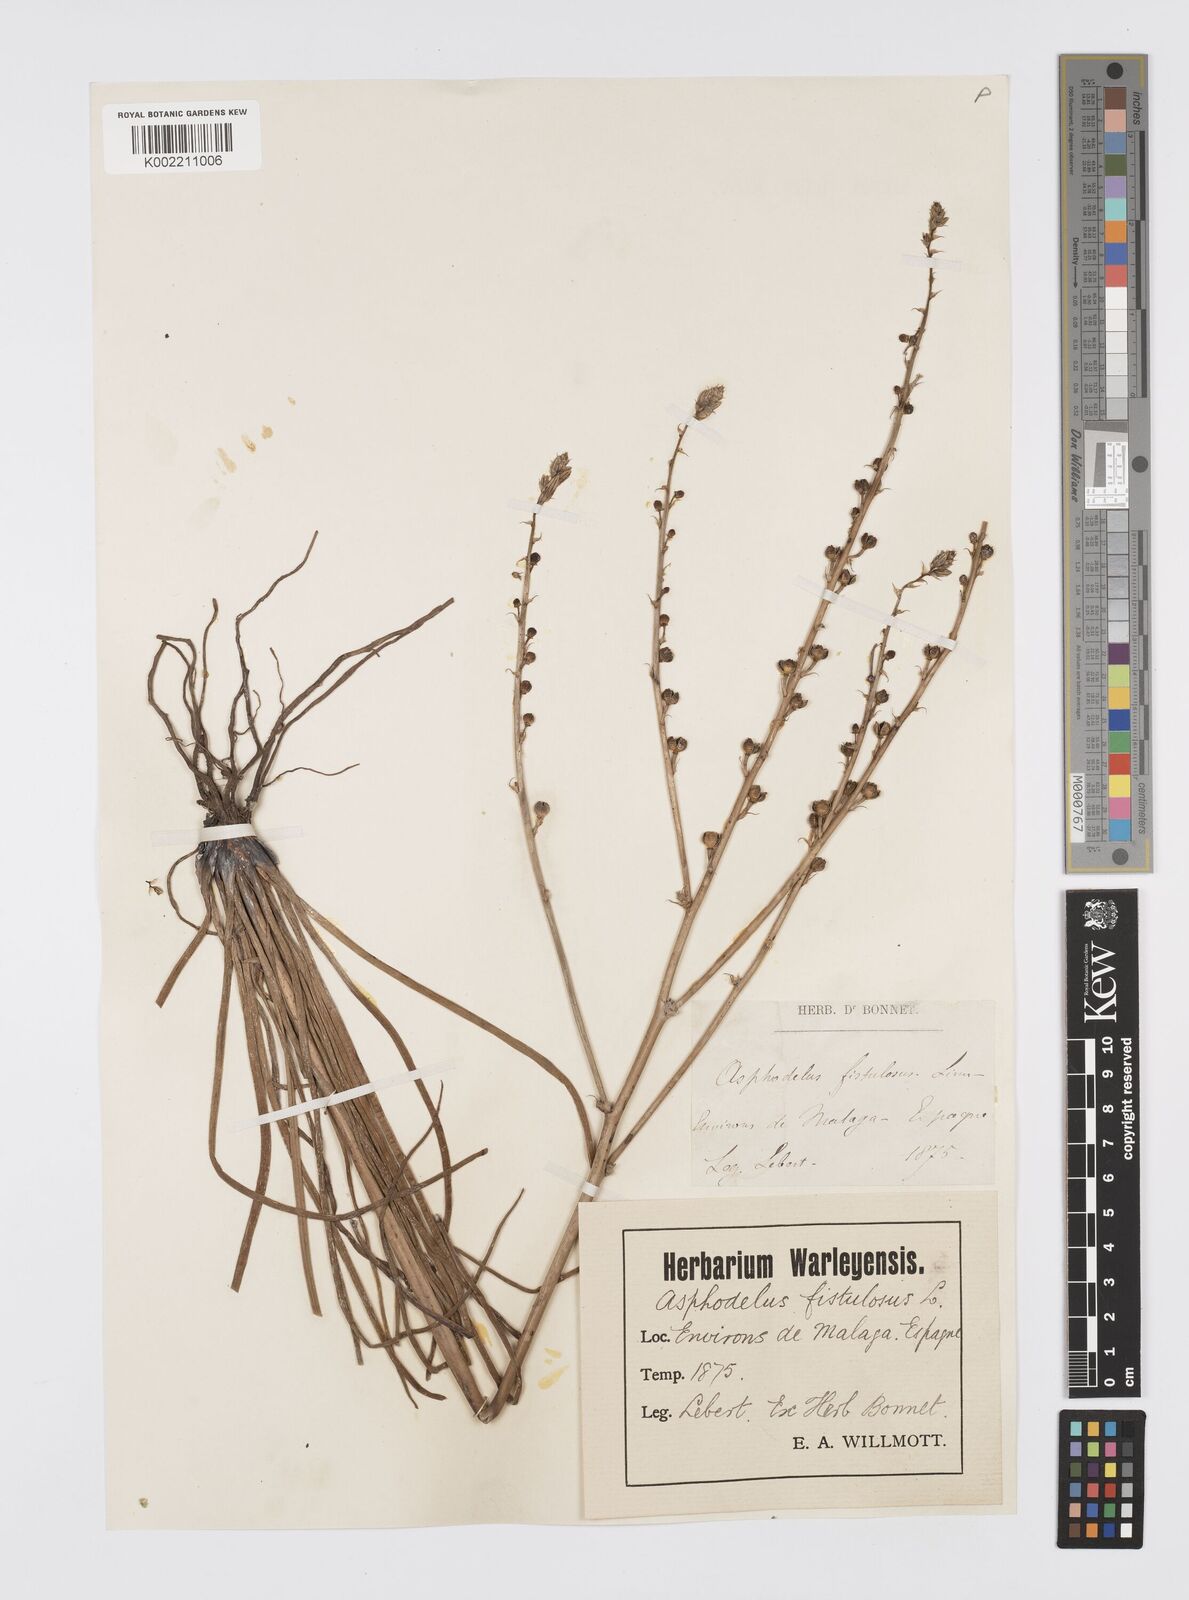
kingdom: Plantae
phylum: Tracheophyta
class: Liliopsida
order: Asparagales
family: Asphodelaceae
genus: Asphodelus
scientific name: Asphodelus fistulosus
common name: Onionweed
